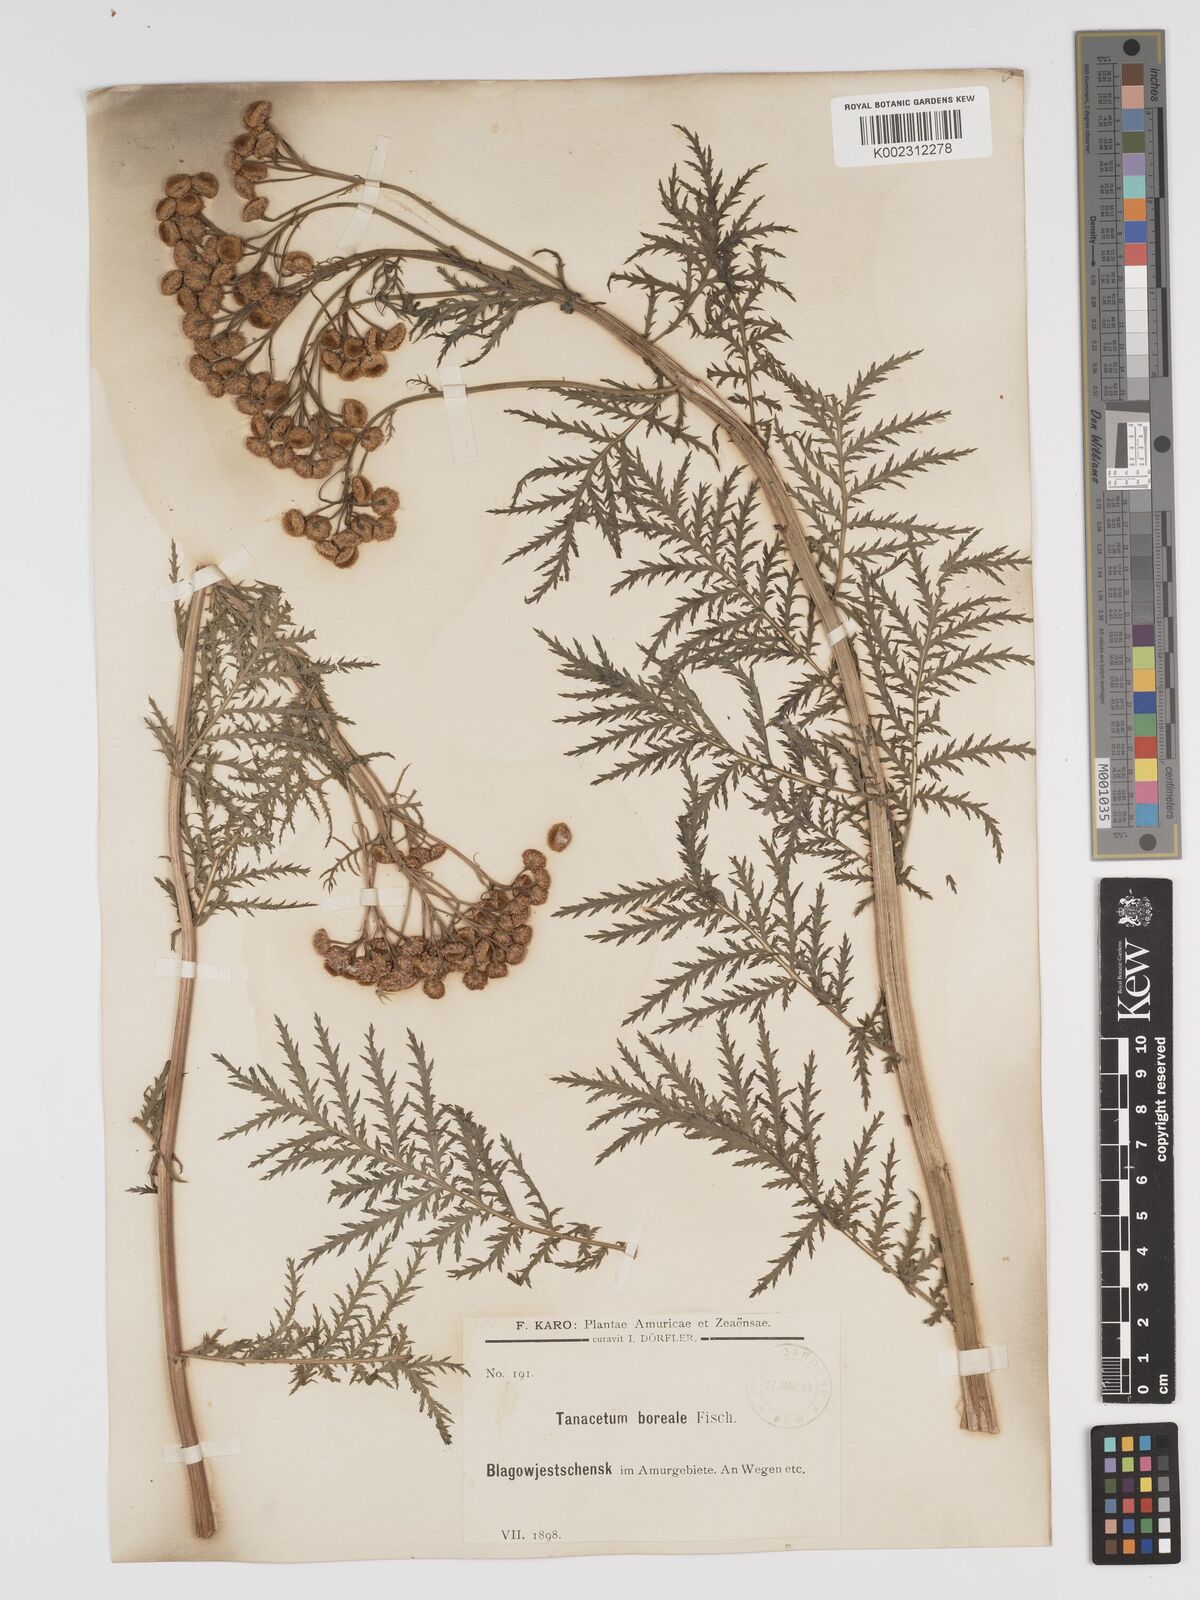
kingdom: Plantae
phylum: Tracheophyta
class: Magnoliopsida
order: Asterales
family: Asteraceae
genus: Tanacetum
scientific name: Tanacetum vulgare
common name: Common tansy
